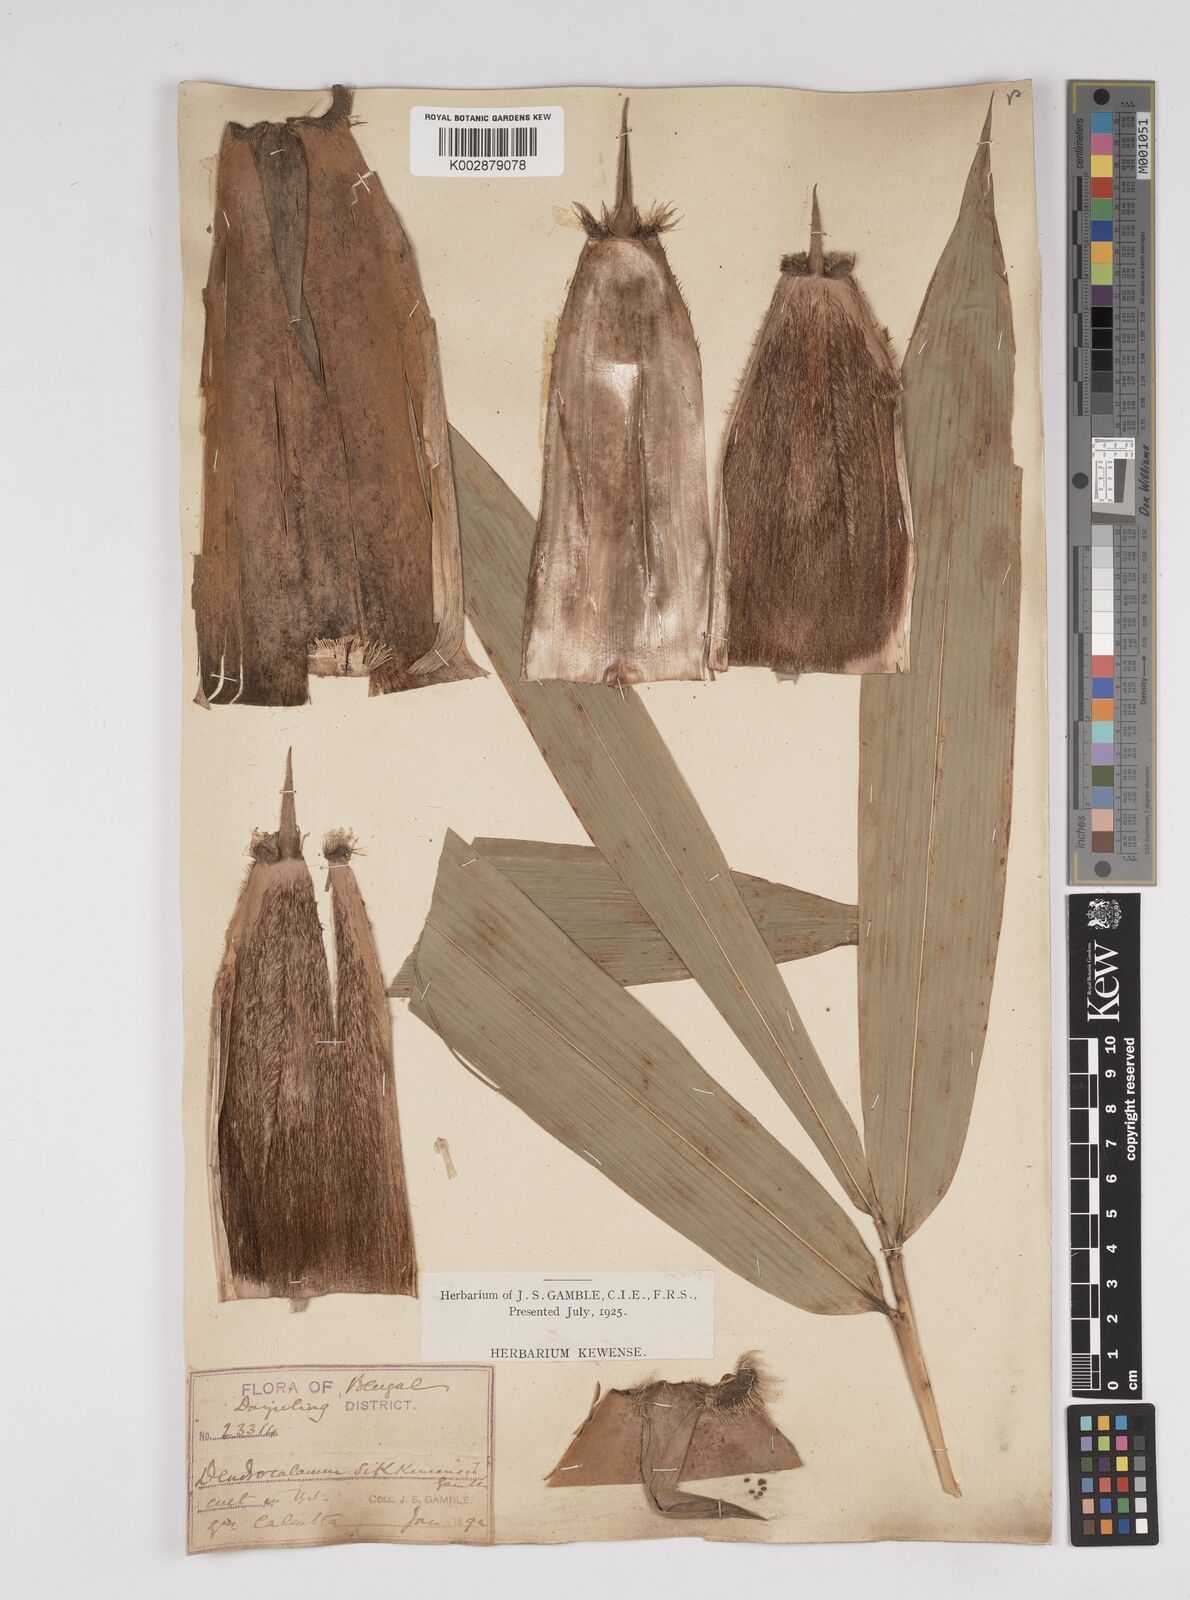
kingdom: Plantae
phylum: Tracheophyta
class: Liliopsida
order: Poales
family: Poaceae
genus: Dendrocalamus
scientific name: Dendrocalamus sikkimensis
